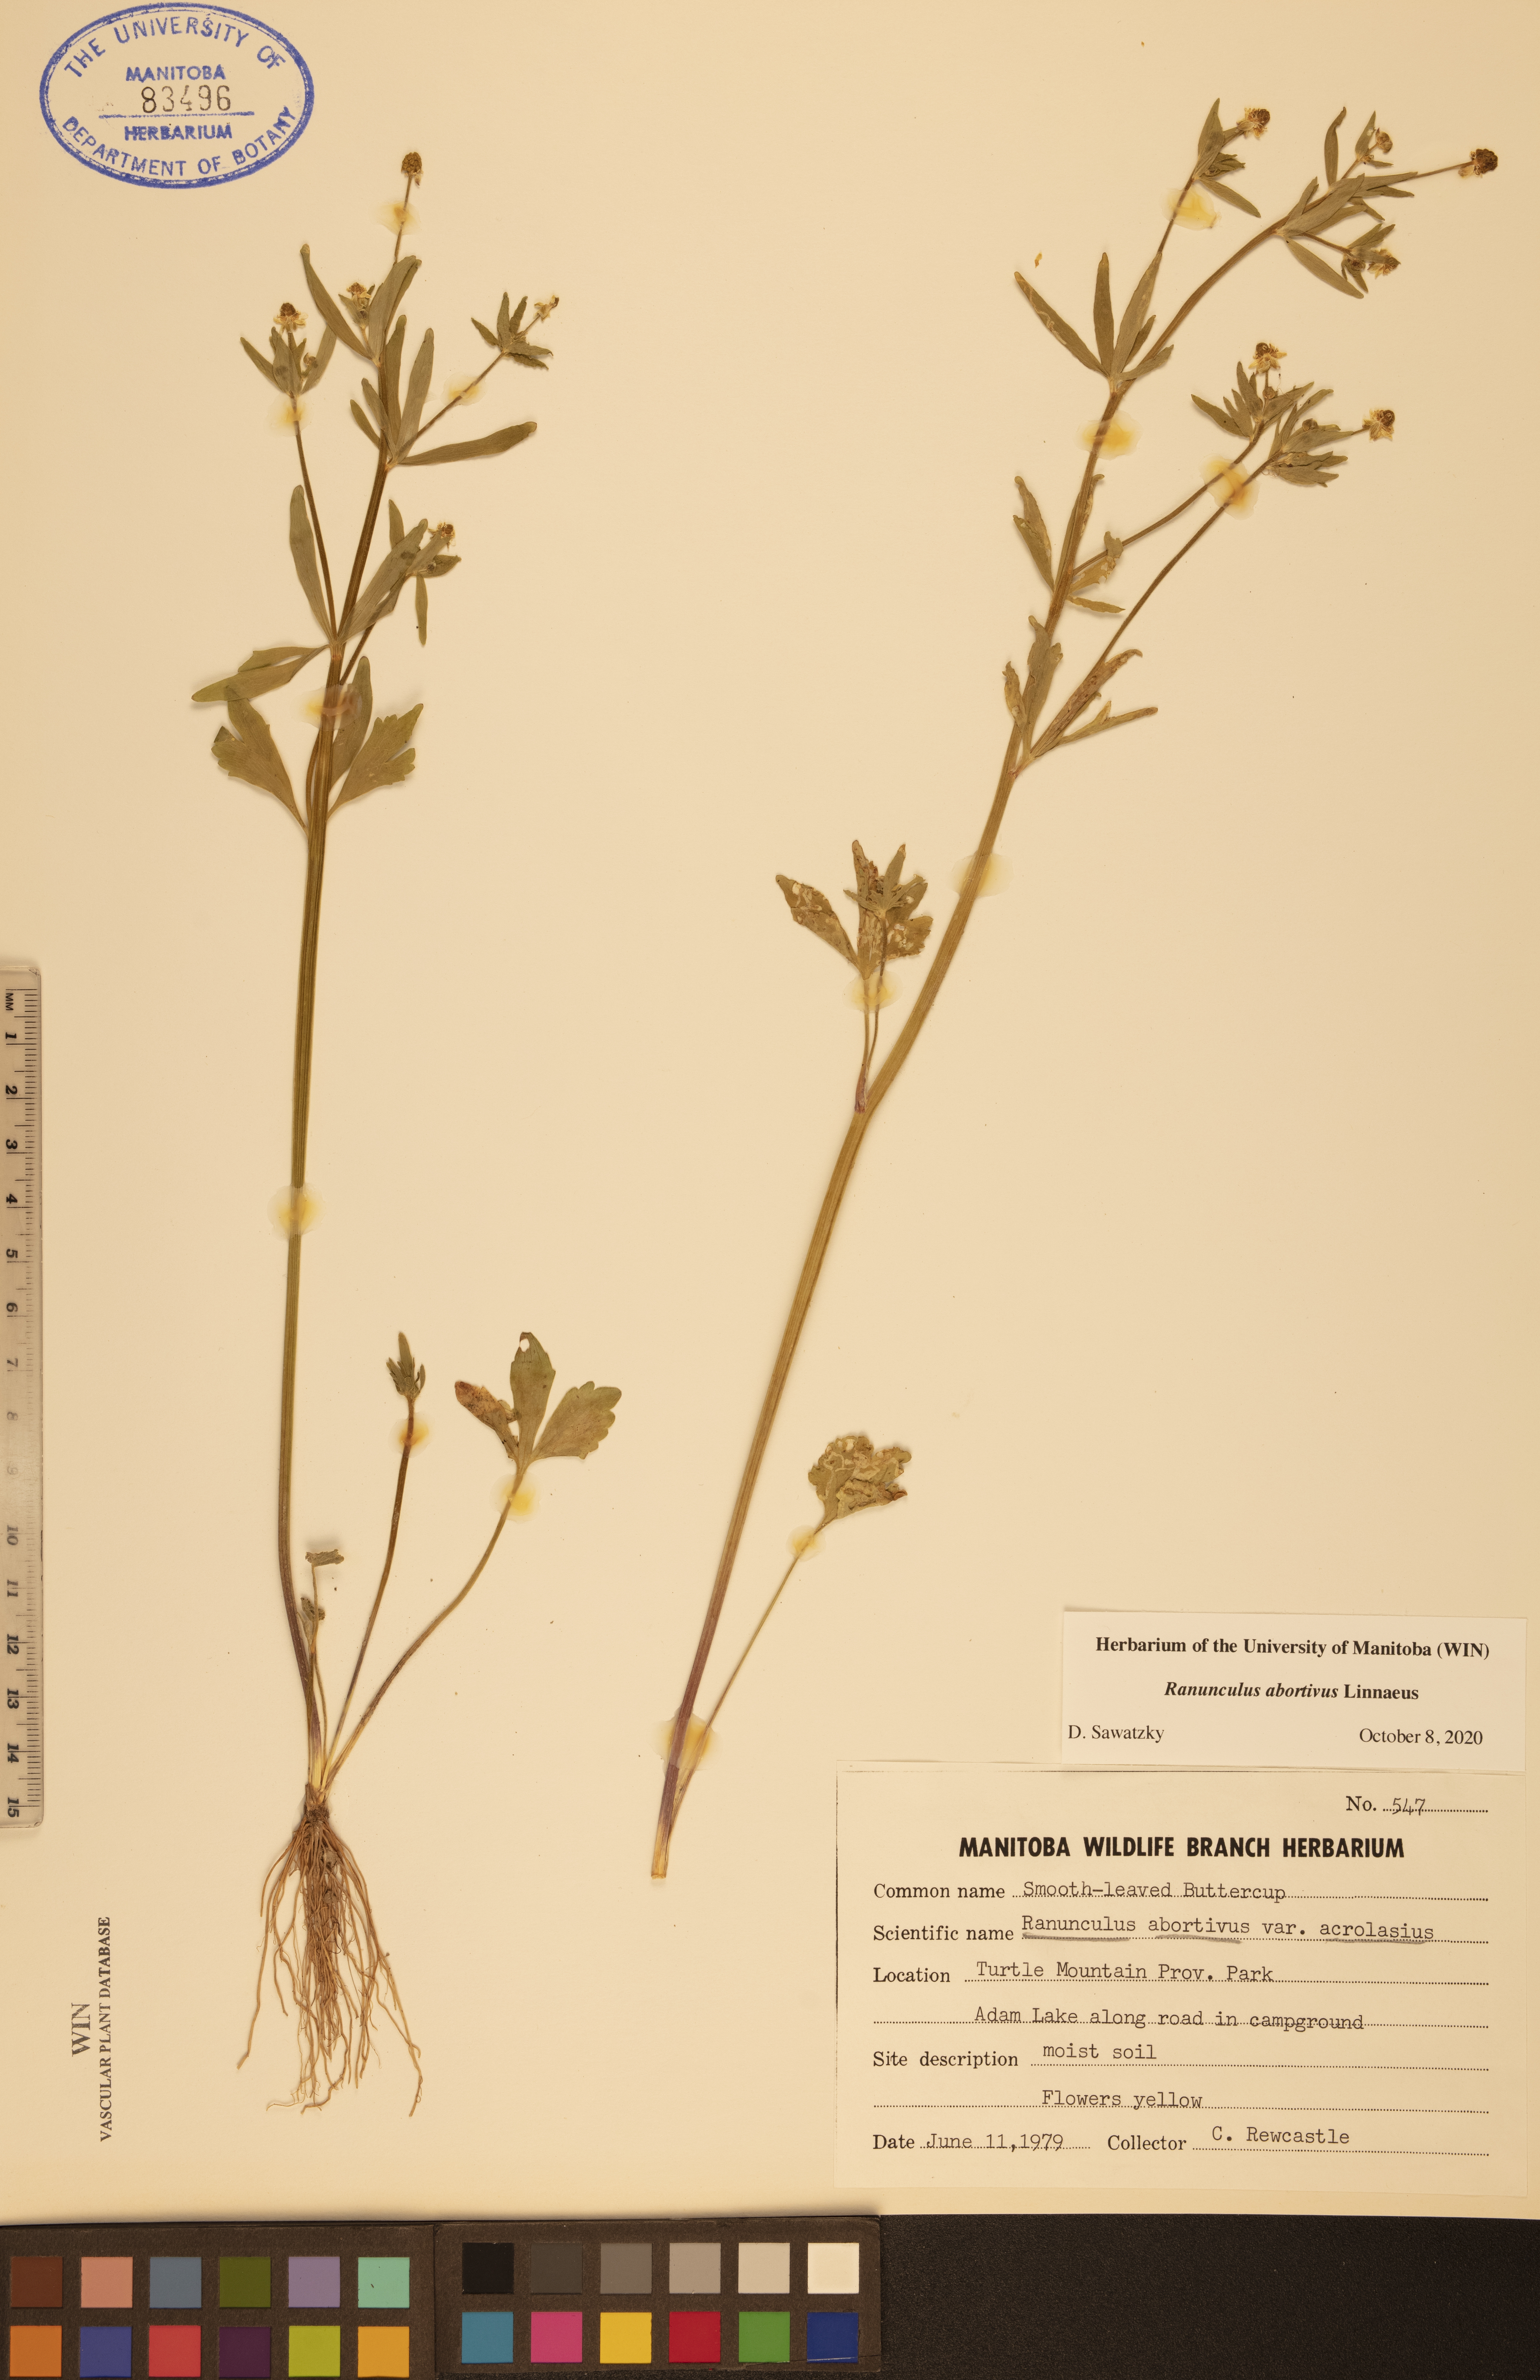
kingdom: Plantae
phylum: Tracheophyta
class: Magnoliopsida
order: Ranunculales
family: Ranunculaceae
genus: Ranunculus
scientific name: Ranunculus abortivus
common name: Early wood buttercup
